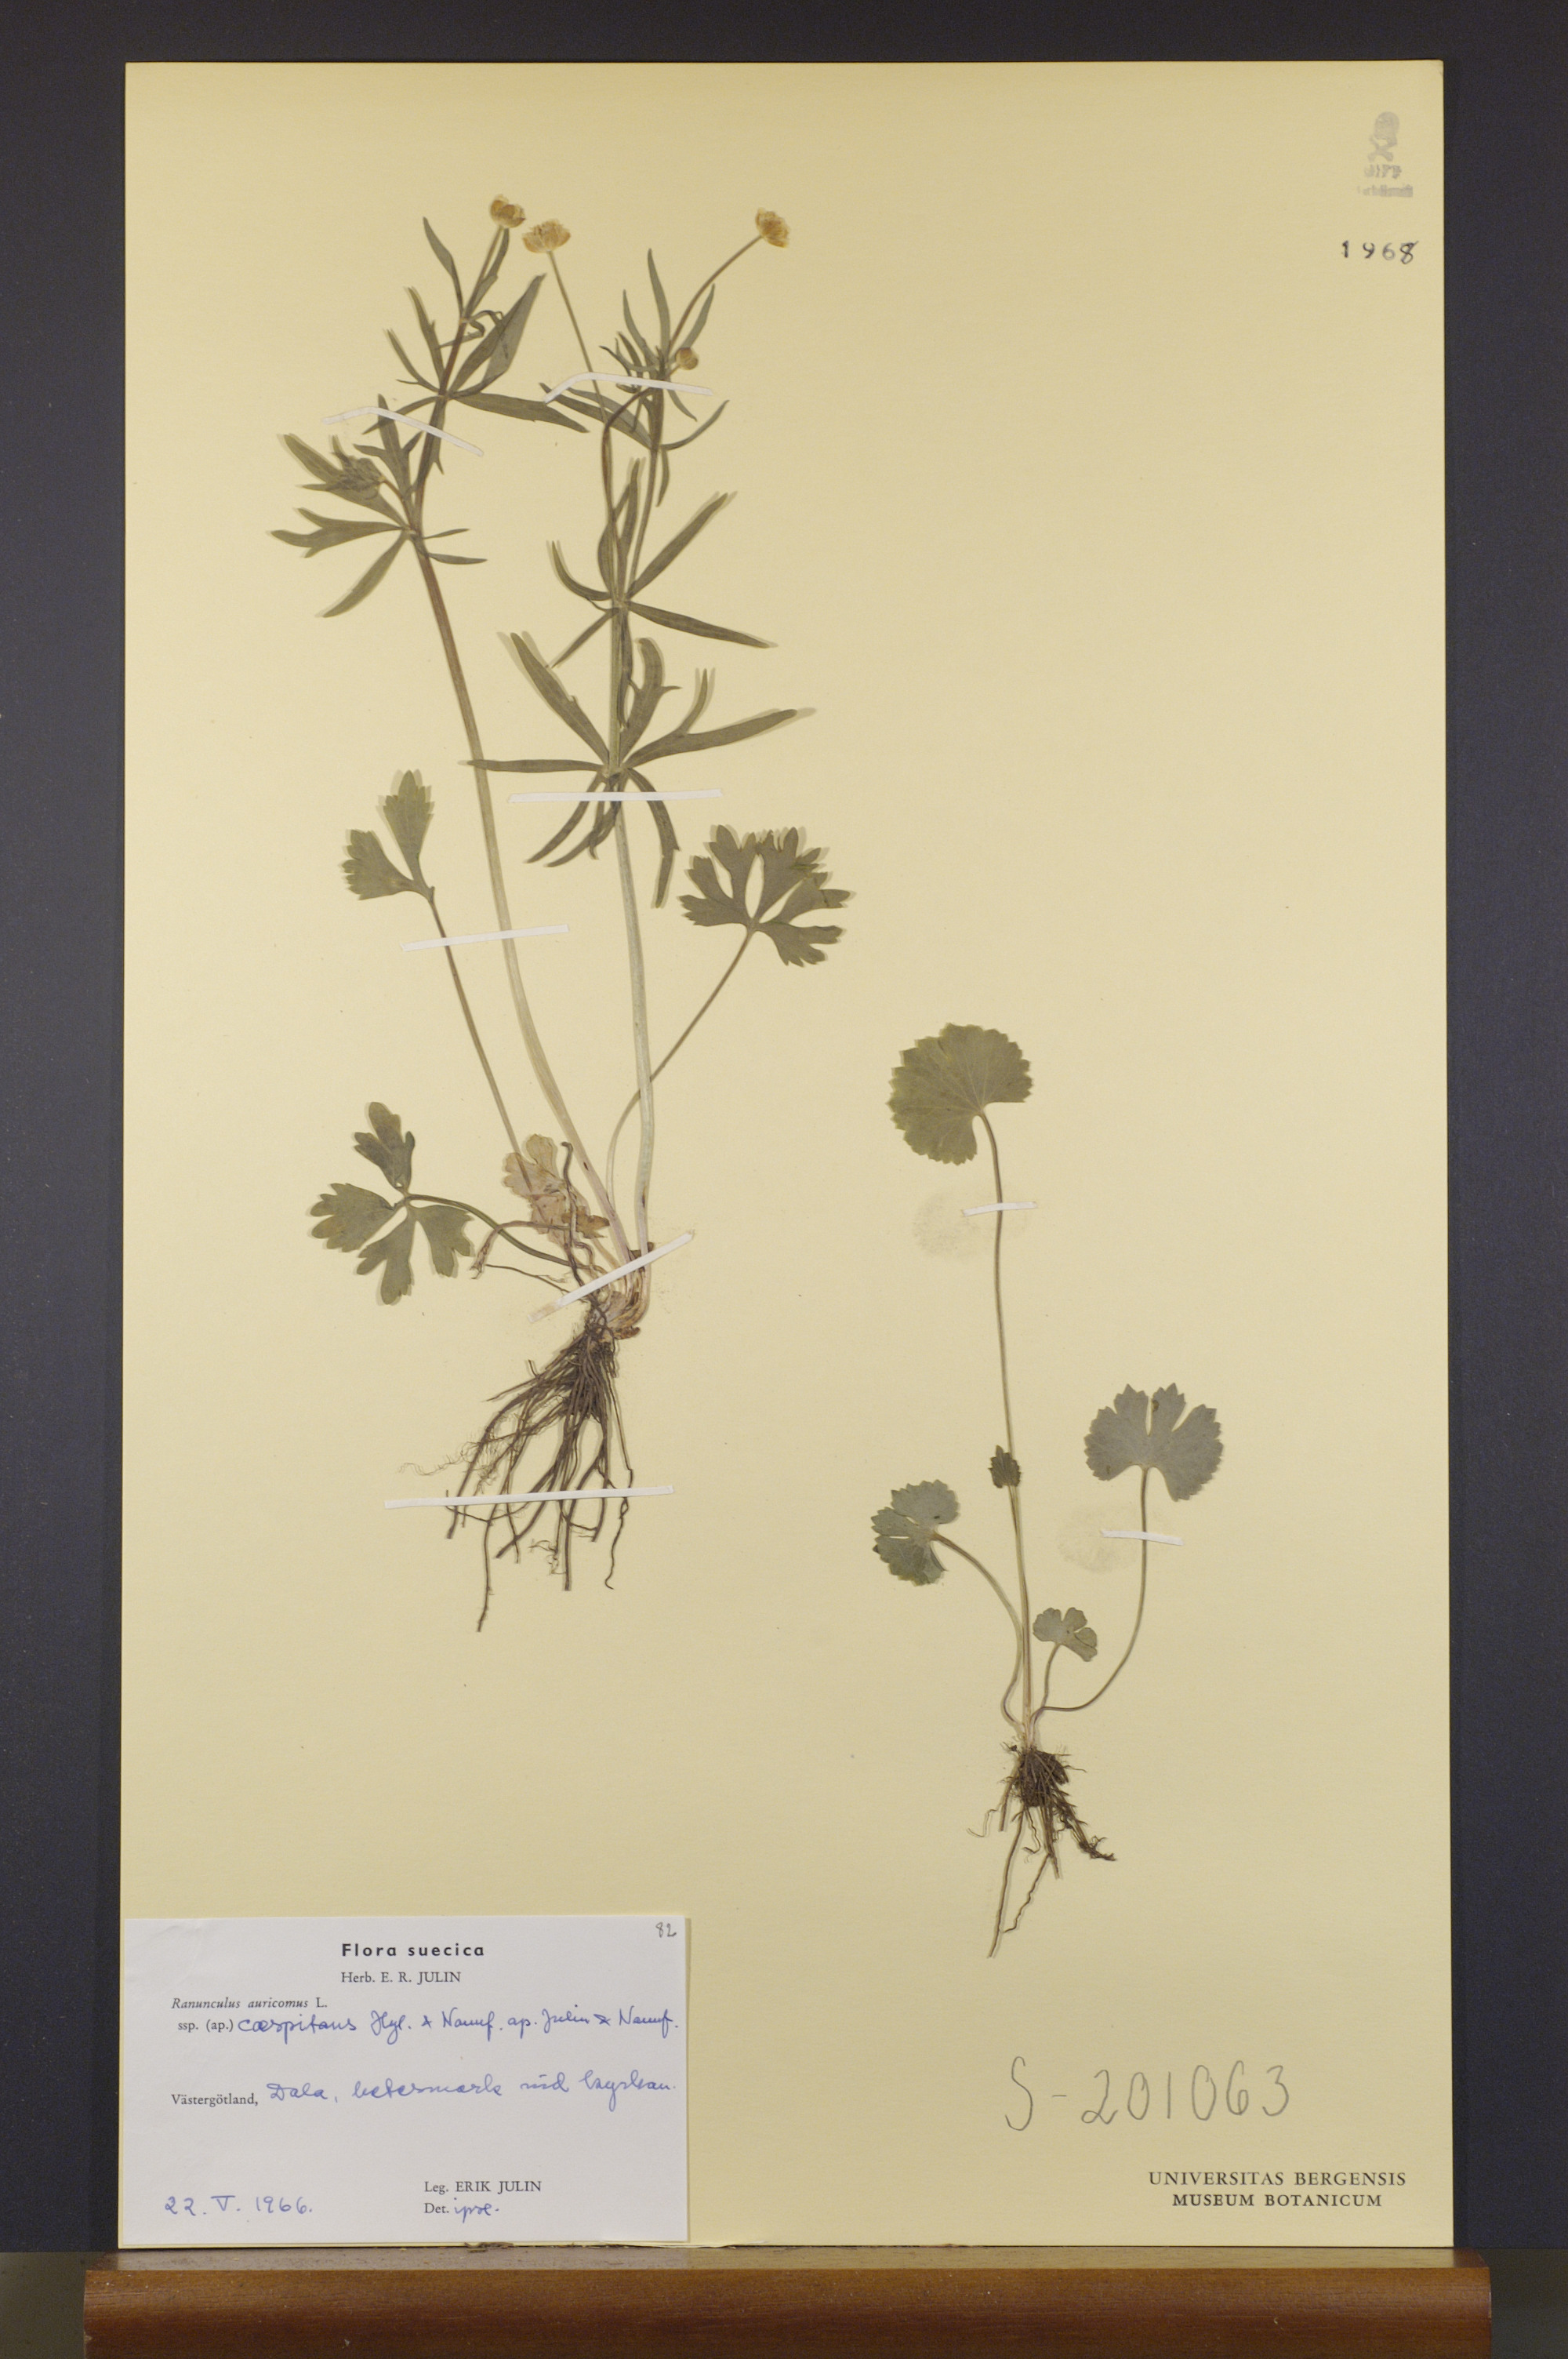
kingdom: Plantae
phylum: Tracheophyta
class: Magnoliopsida
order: Ranunculales
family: Ranunculaceae
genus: Ranunculus
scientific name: Ranunculus caespitans
